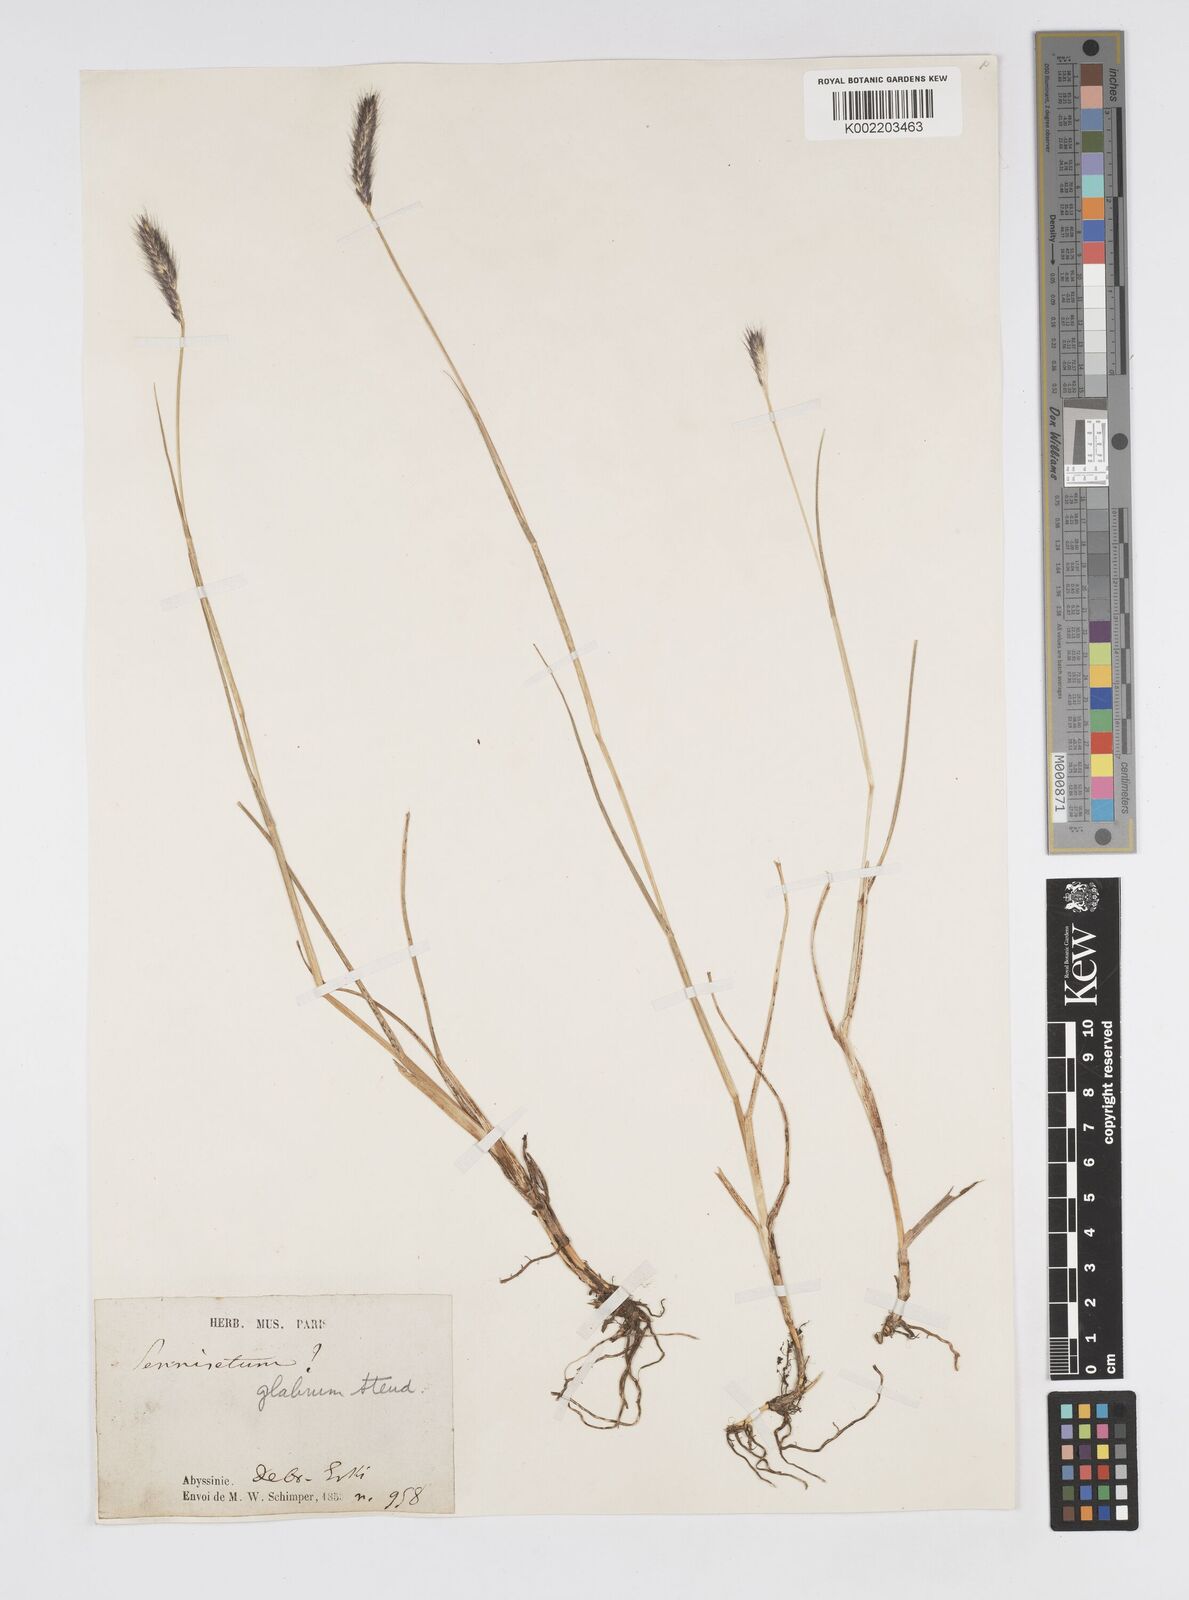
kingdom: Plantae
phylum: Tracheophyta
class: Liliopsida
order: Poales
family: Poaceae
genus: Cenchrus
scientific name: Cenchrus geniculatus
